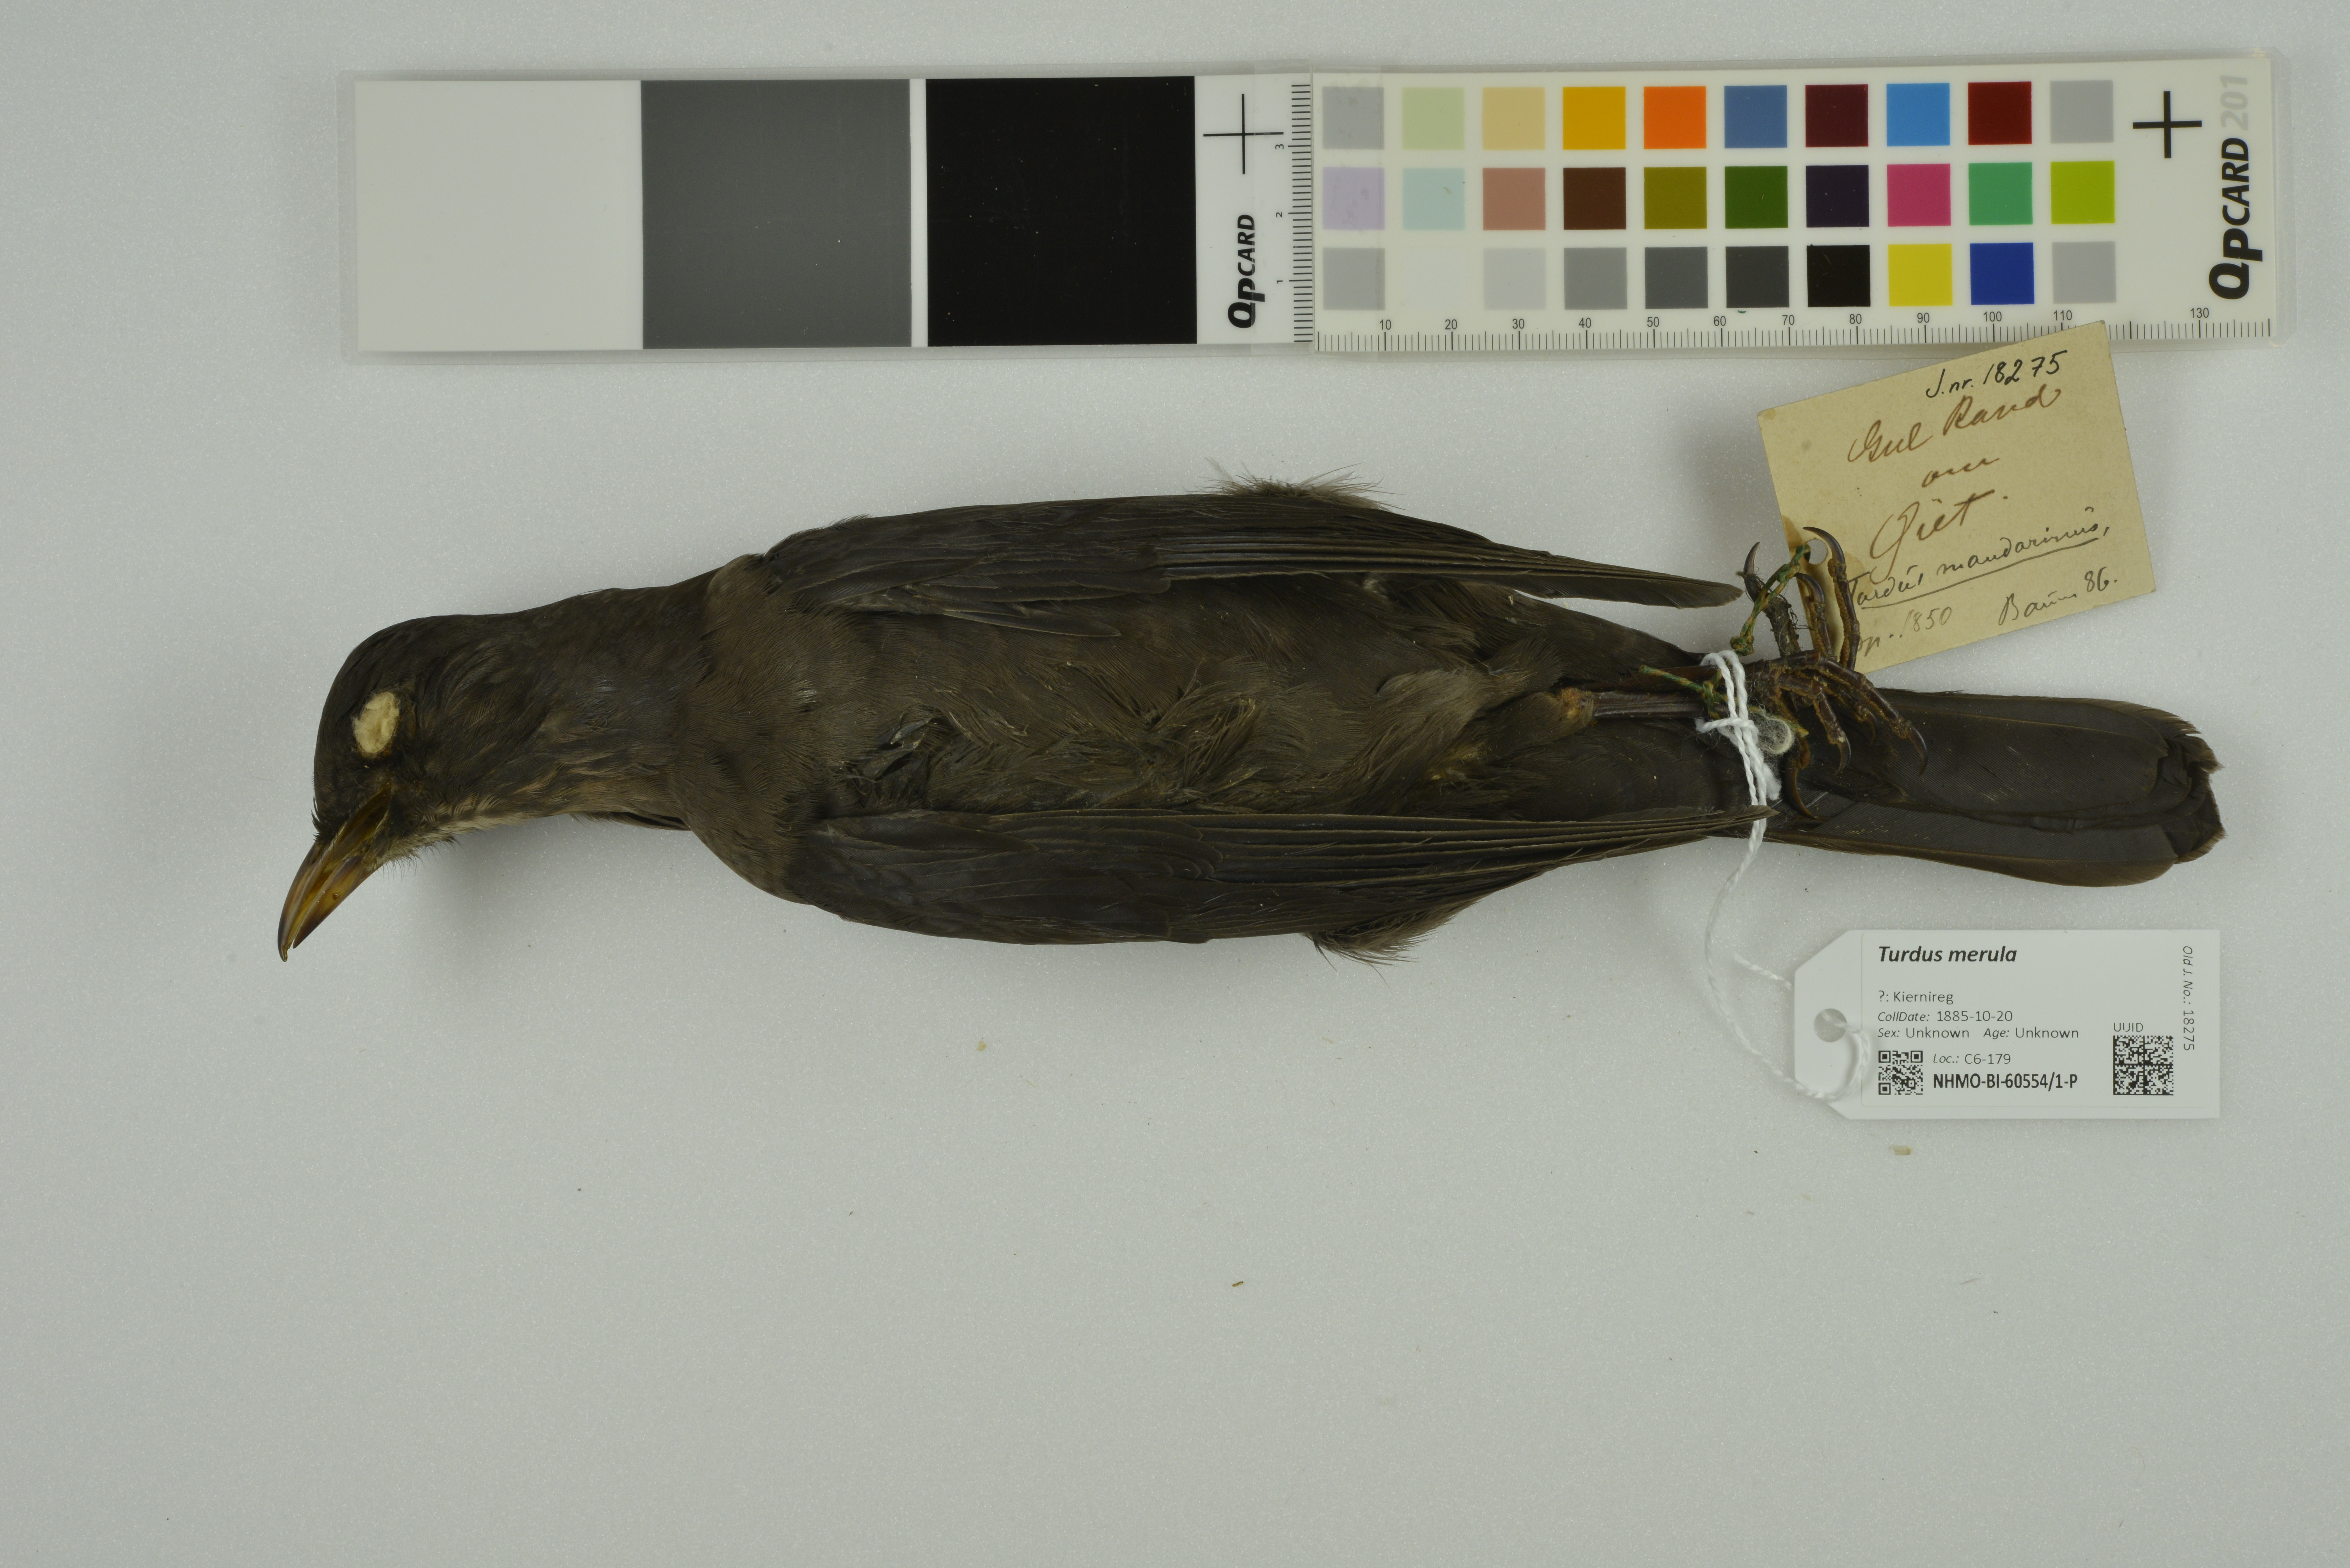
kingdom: Animalia
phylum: Chordata
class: Aves
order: Passeriformes
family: Turdidae
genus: Turdus
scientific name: Turdus merula
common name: Common blackbird
